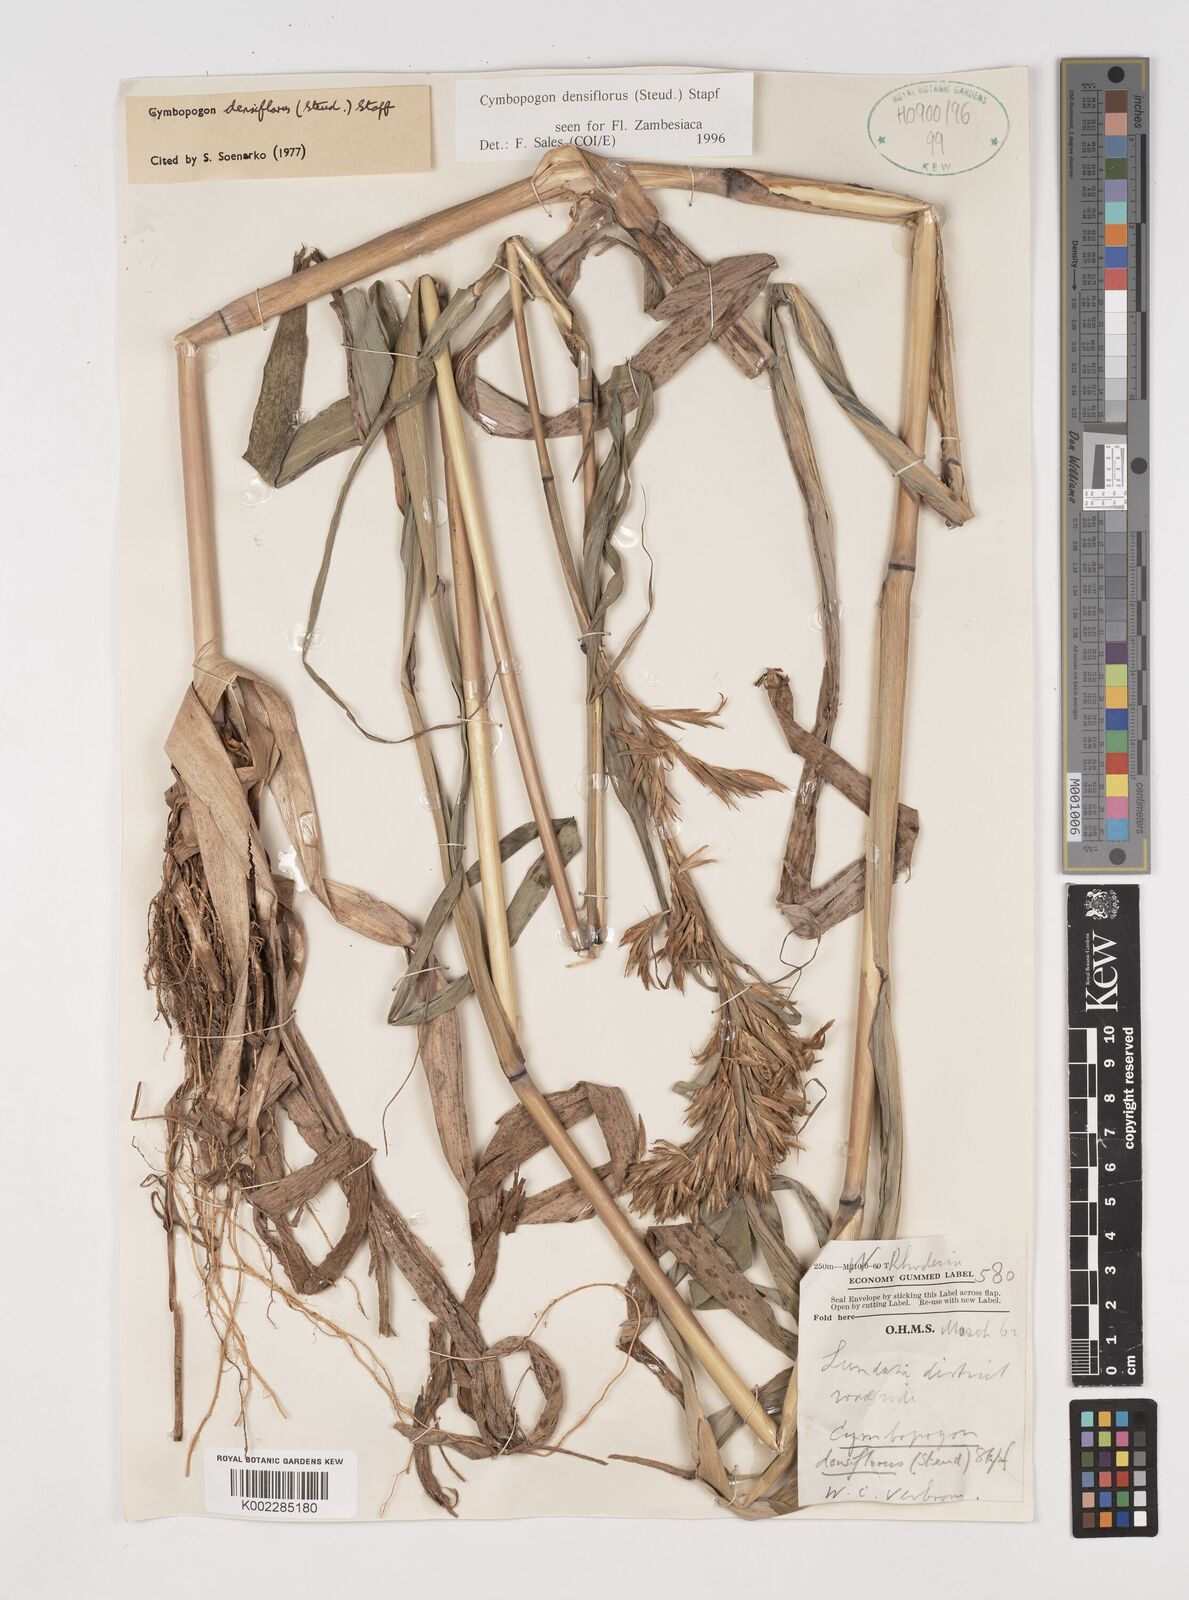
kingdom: Plantae
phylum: Tracheophyta
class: Liliopsida
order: Poales
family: Poaceae
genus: Cymbopogon
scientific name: Cymbopogon densiflorus
